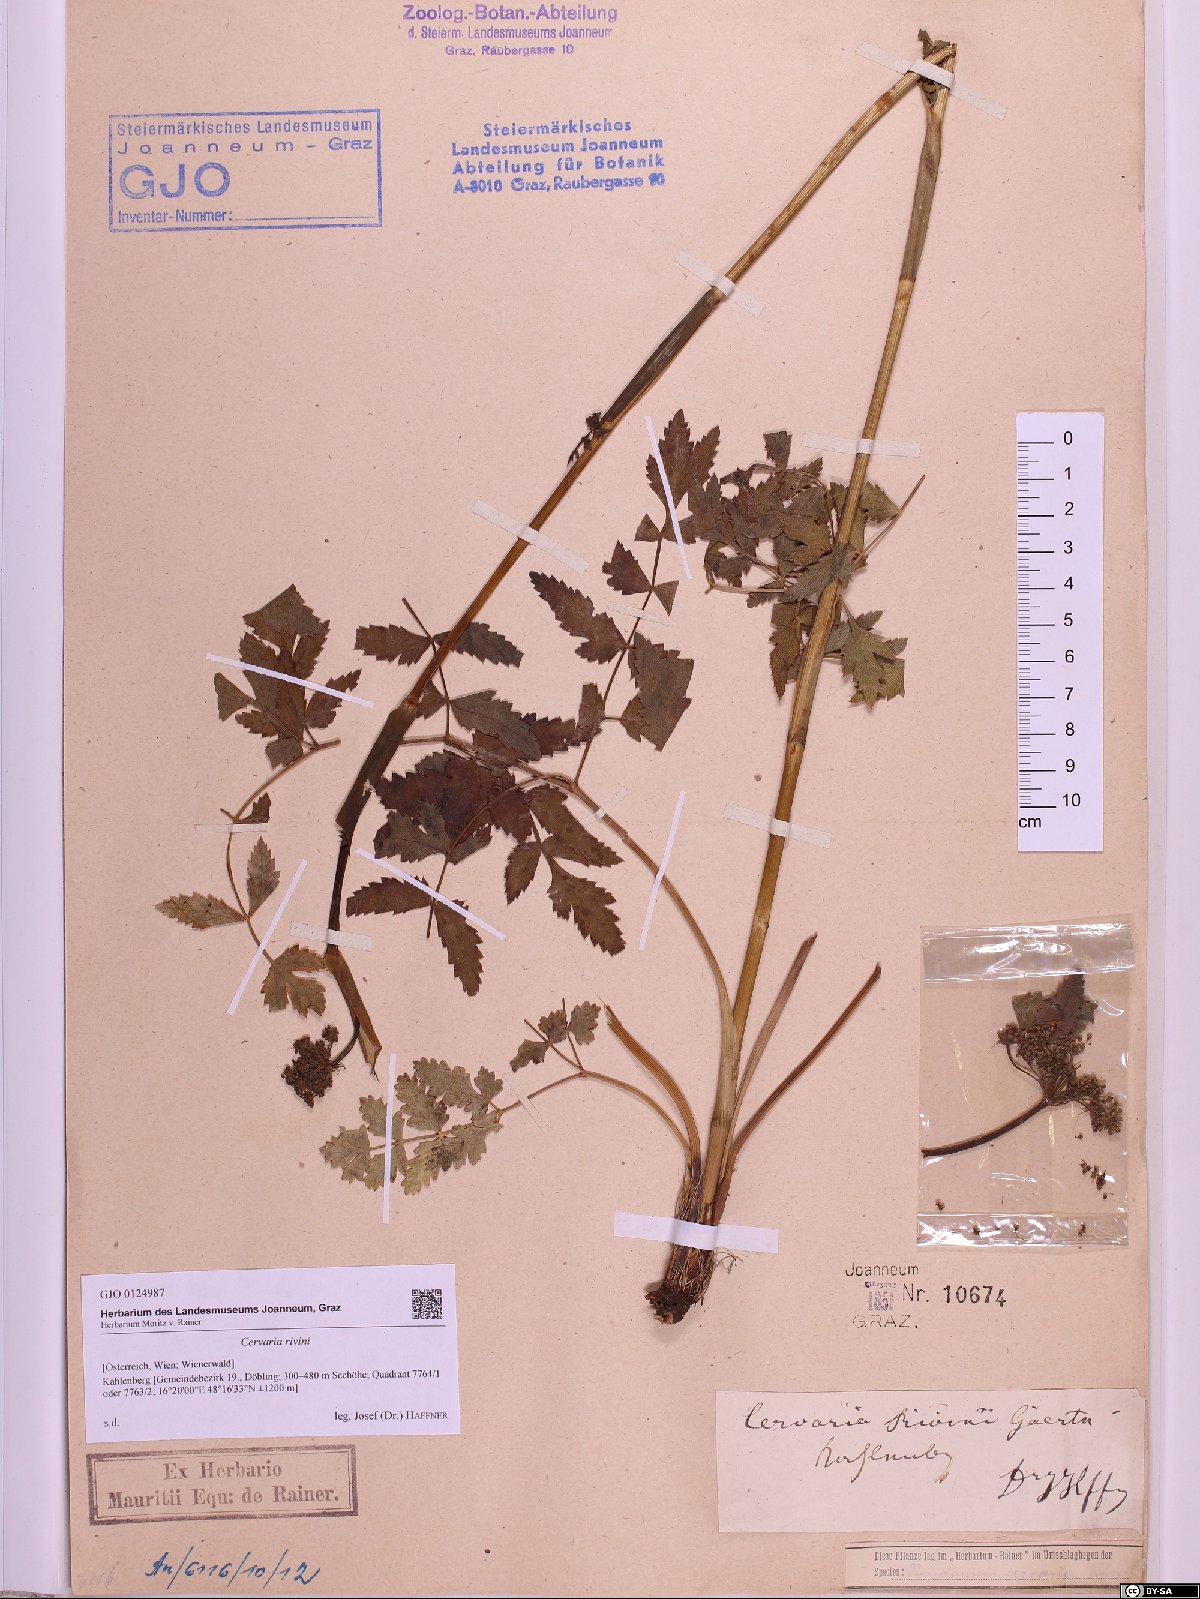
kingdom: Plantae
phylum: Tracheophyta
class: Magnoliopsida
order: Apiales
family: Apiaceae
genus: Cervaria
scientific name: Cervaria rivini
